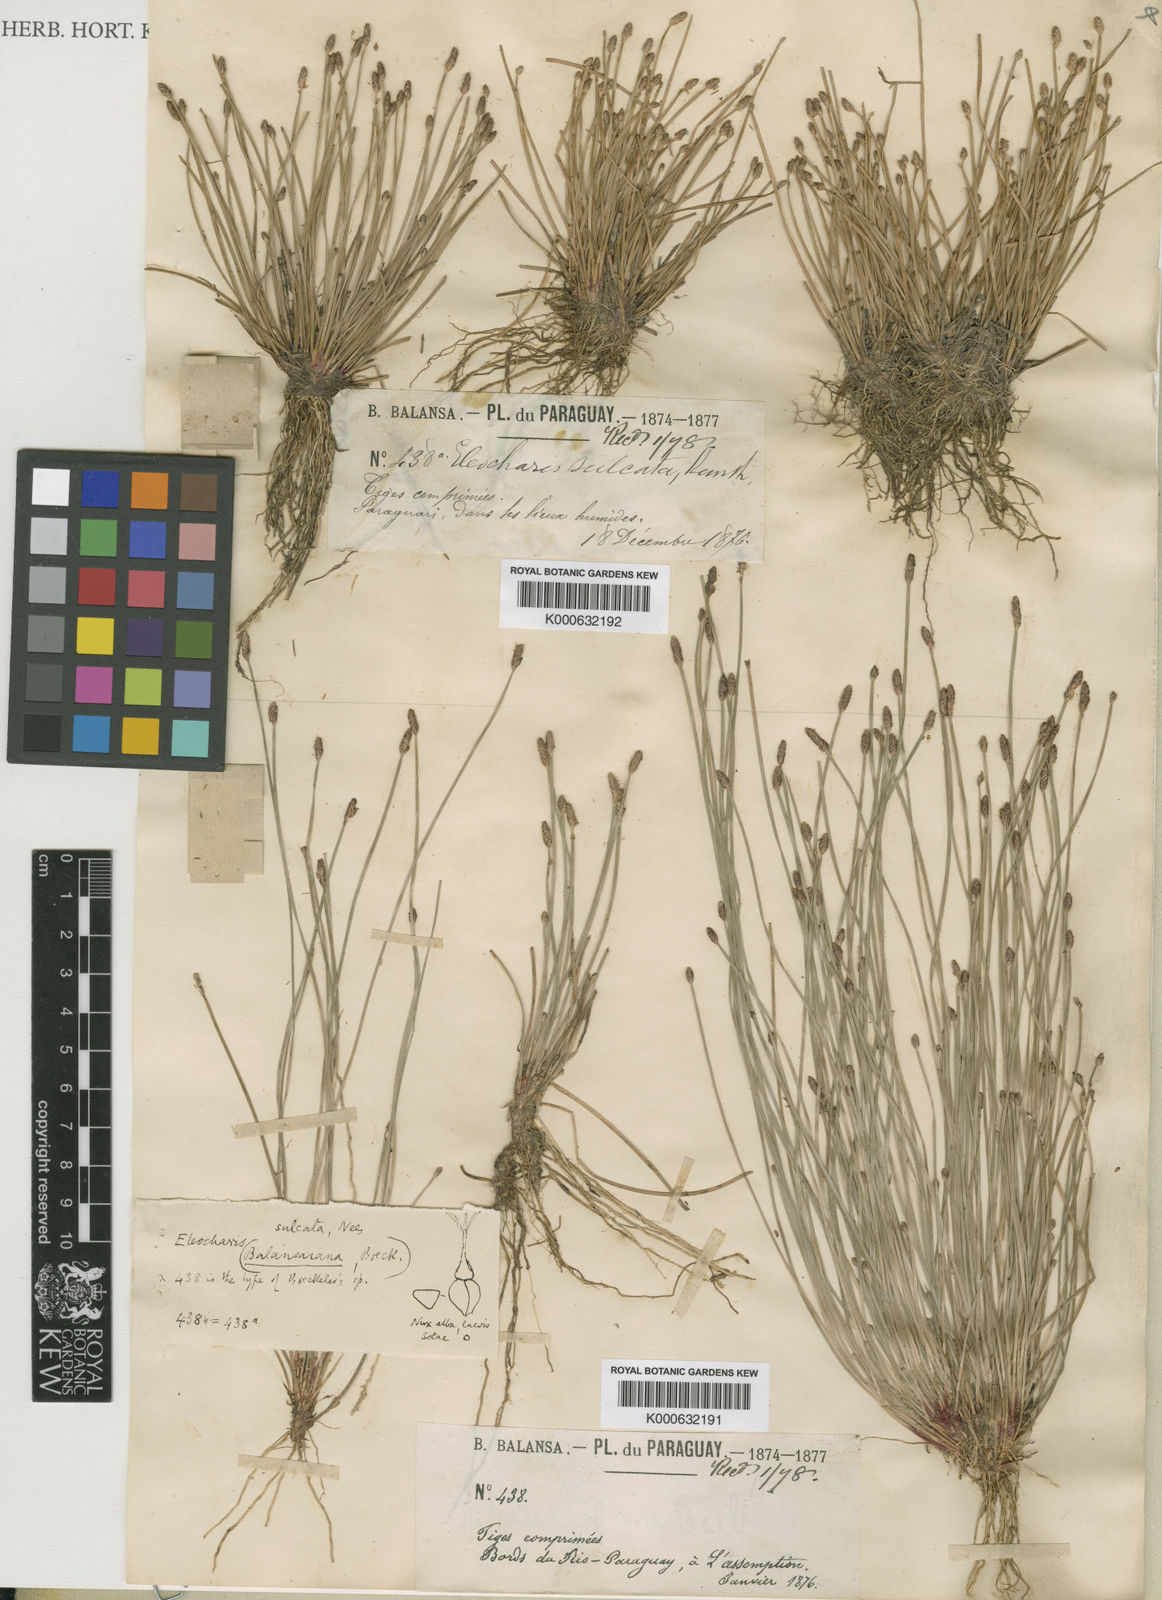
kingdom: Plantae
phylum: Tracheophyta
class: Liliopsida
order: Poales
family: Cyperaceae
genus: Eleocharis
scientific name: Eleocharis filiculmis
